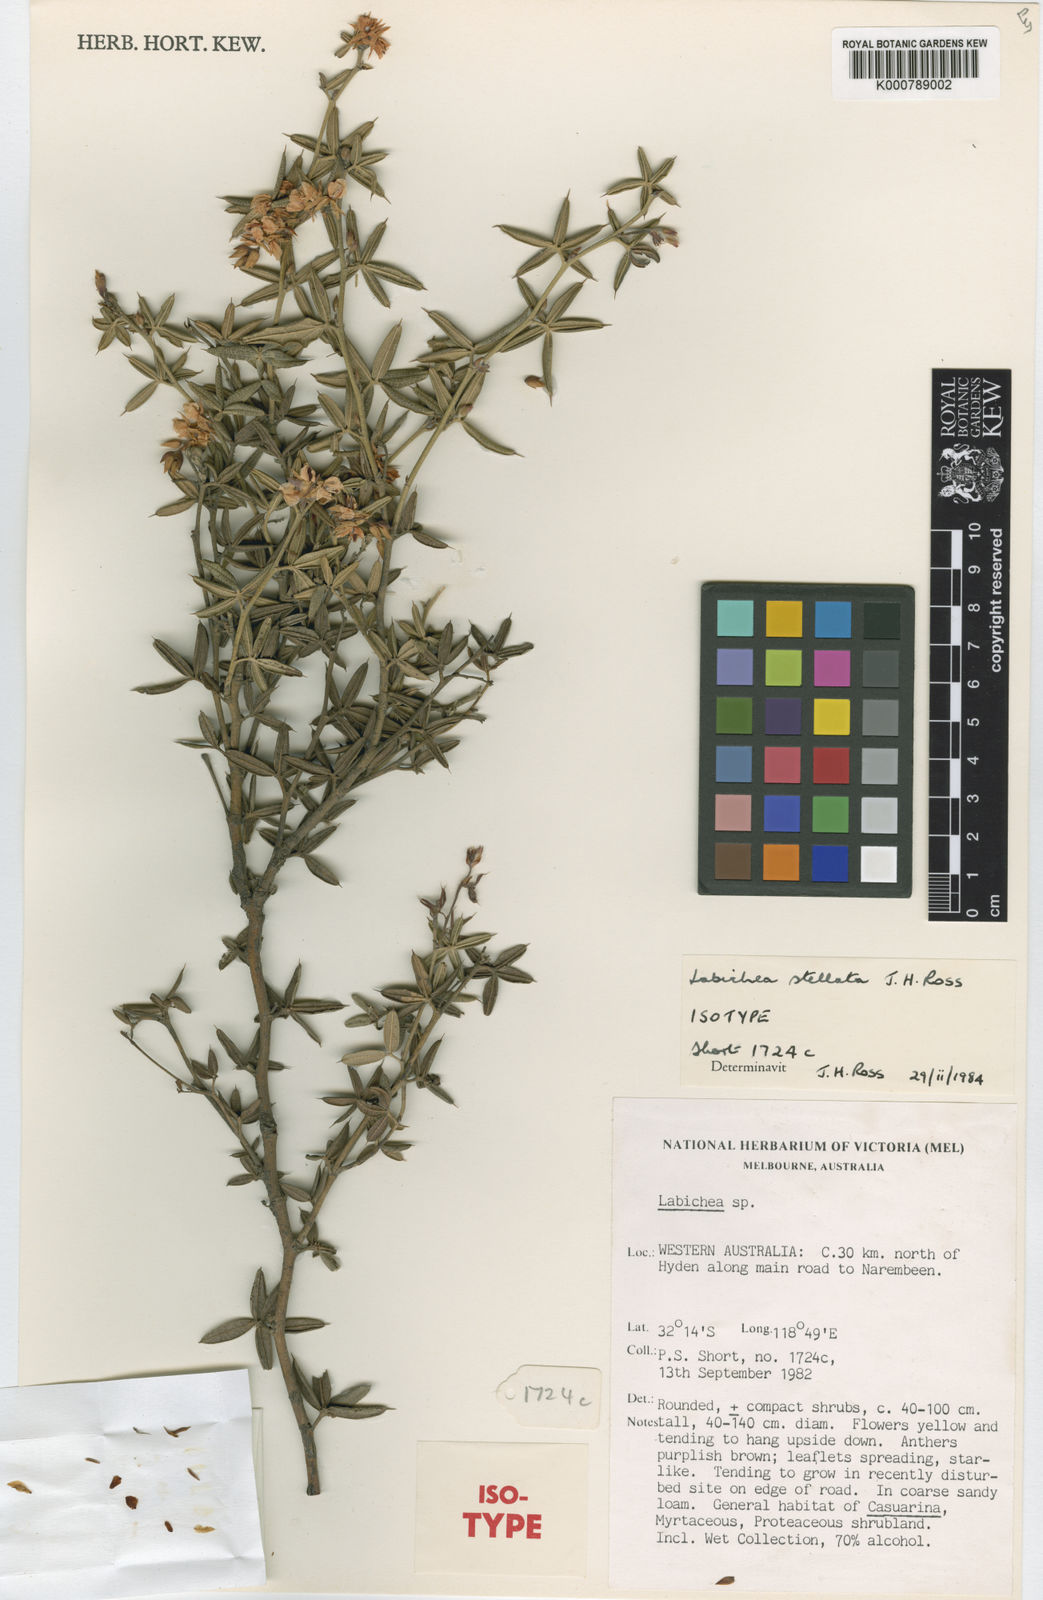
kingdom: Plantae
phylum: Tracheophyta
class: Magnoliopsida
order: Fabales
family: Fabaceae
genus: Labichea
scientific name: Labichea stellata
